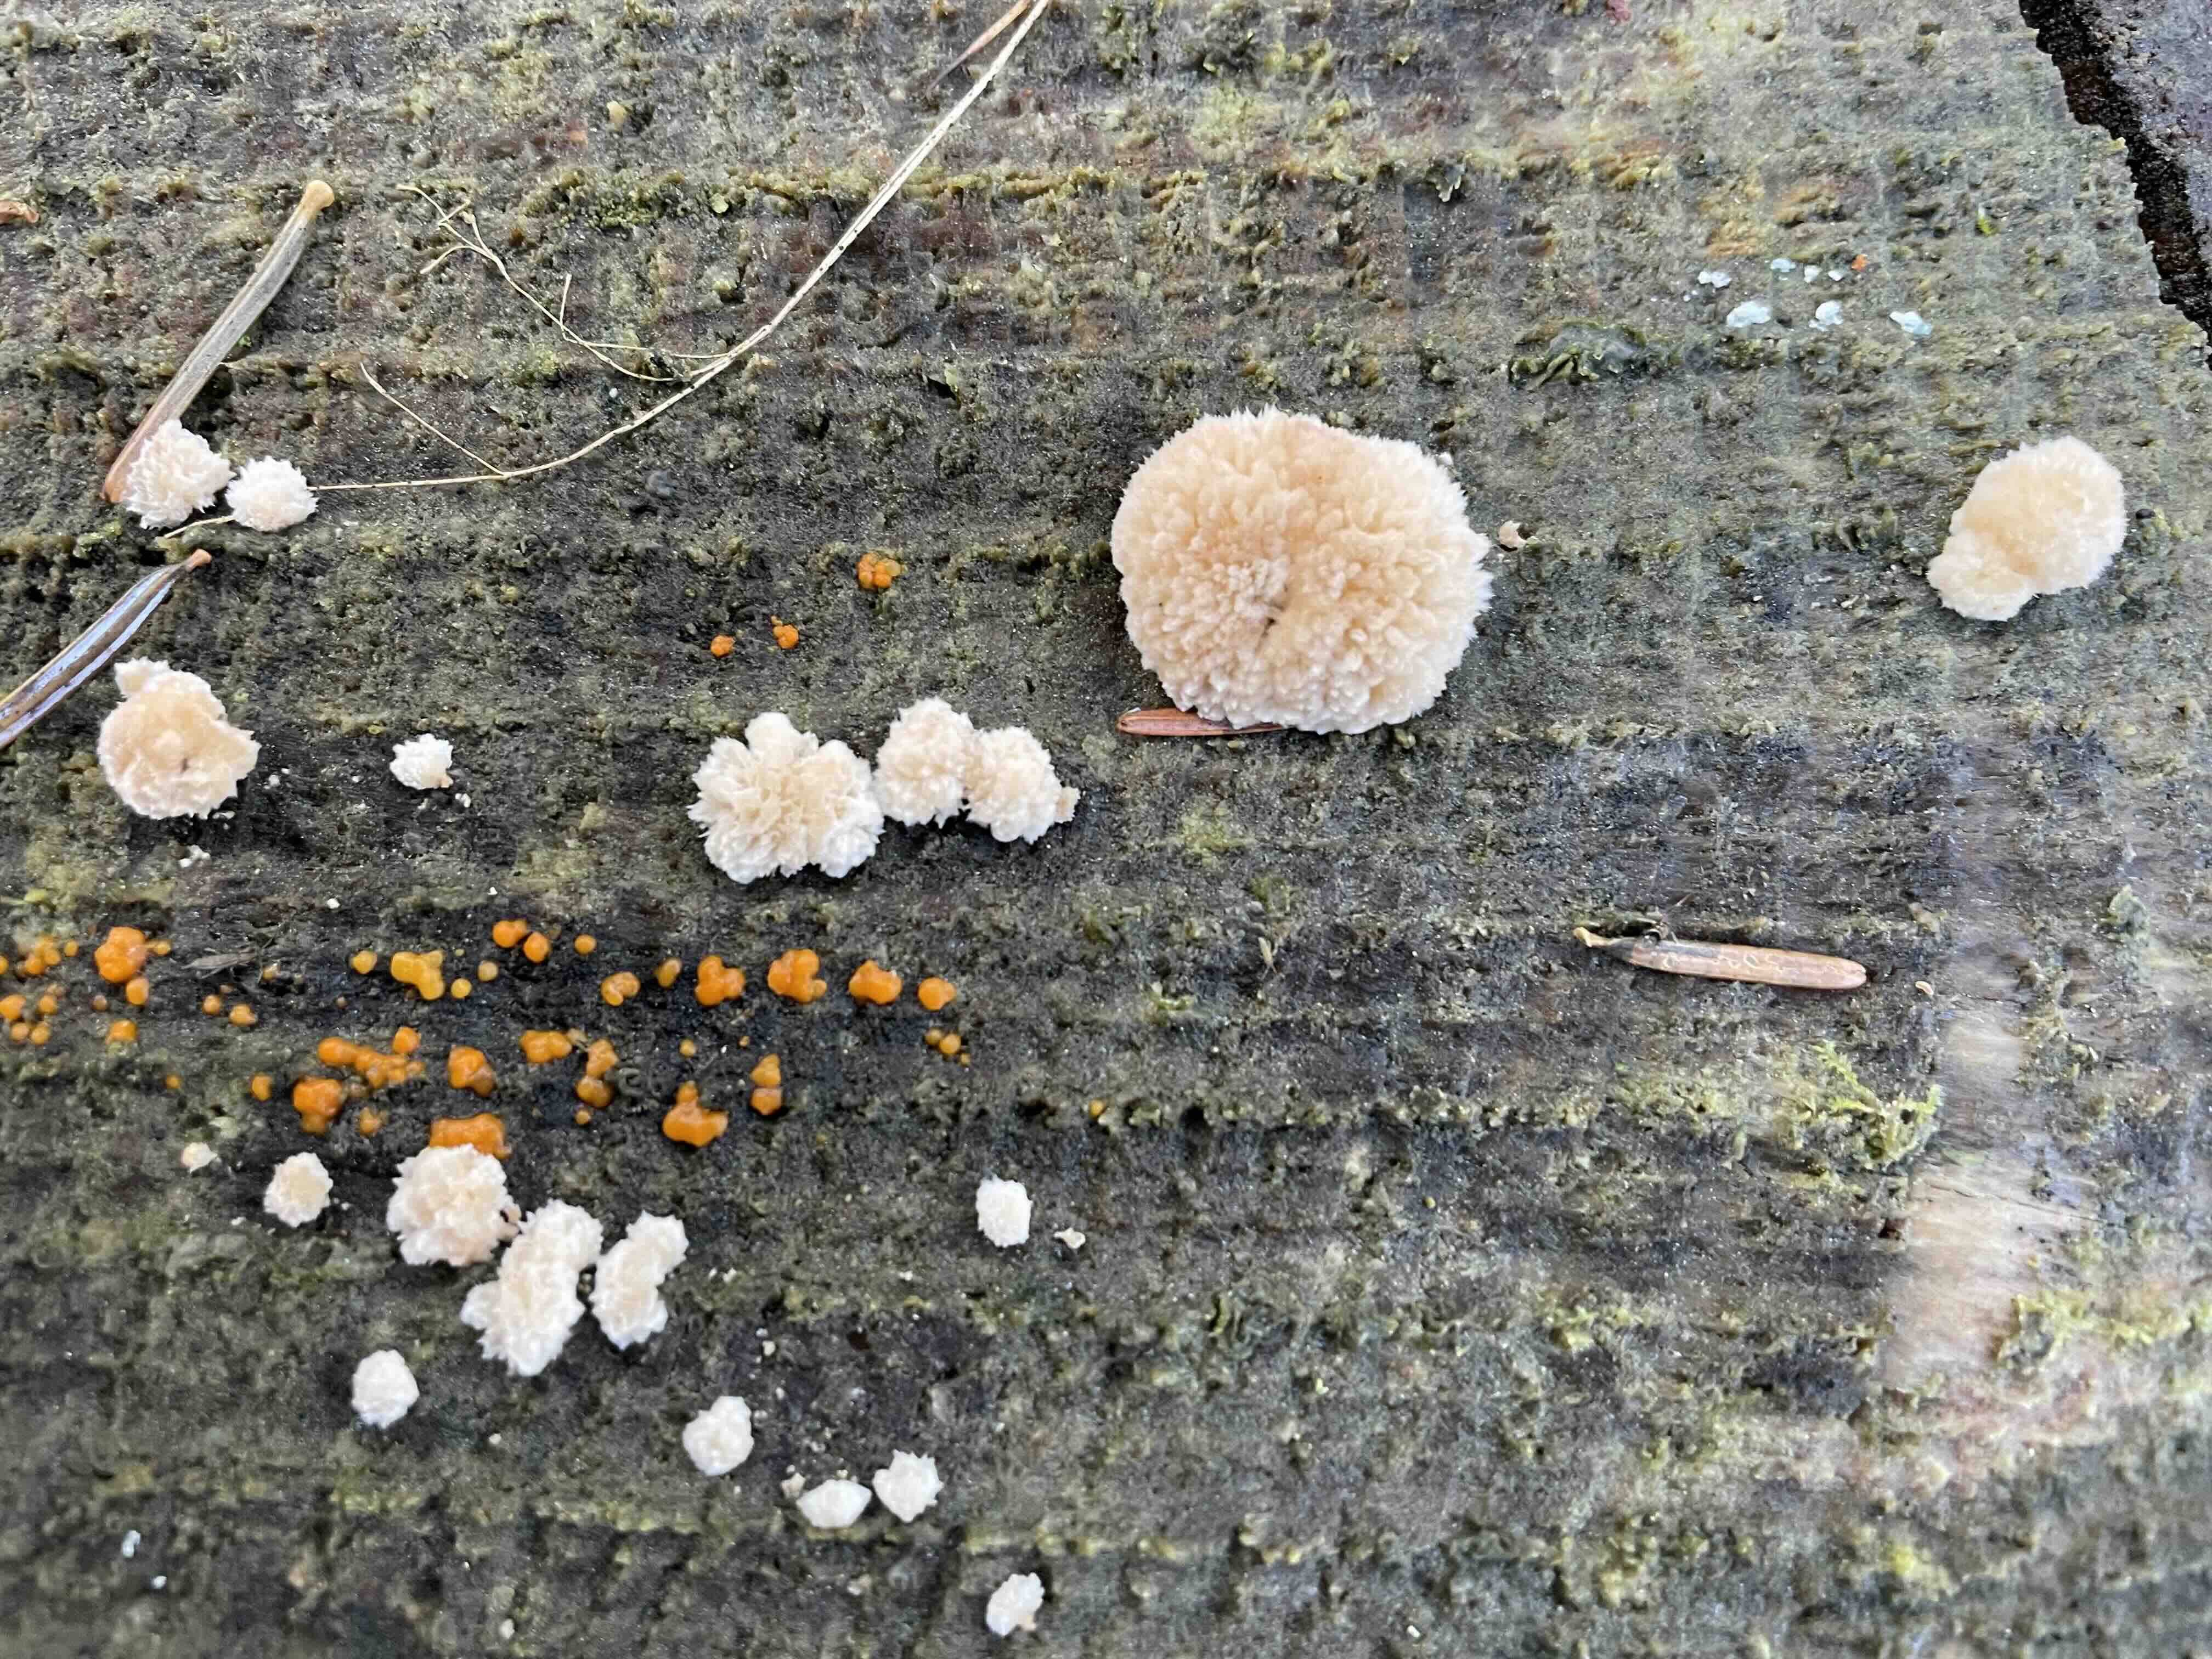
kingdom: Fungi
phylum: Basidiomycota
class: Agaricomycetes
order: Polyporales
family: Dacryobolaceae
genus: Postia
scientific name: Postia ptychogaster
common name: støvende kødporesvamp
